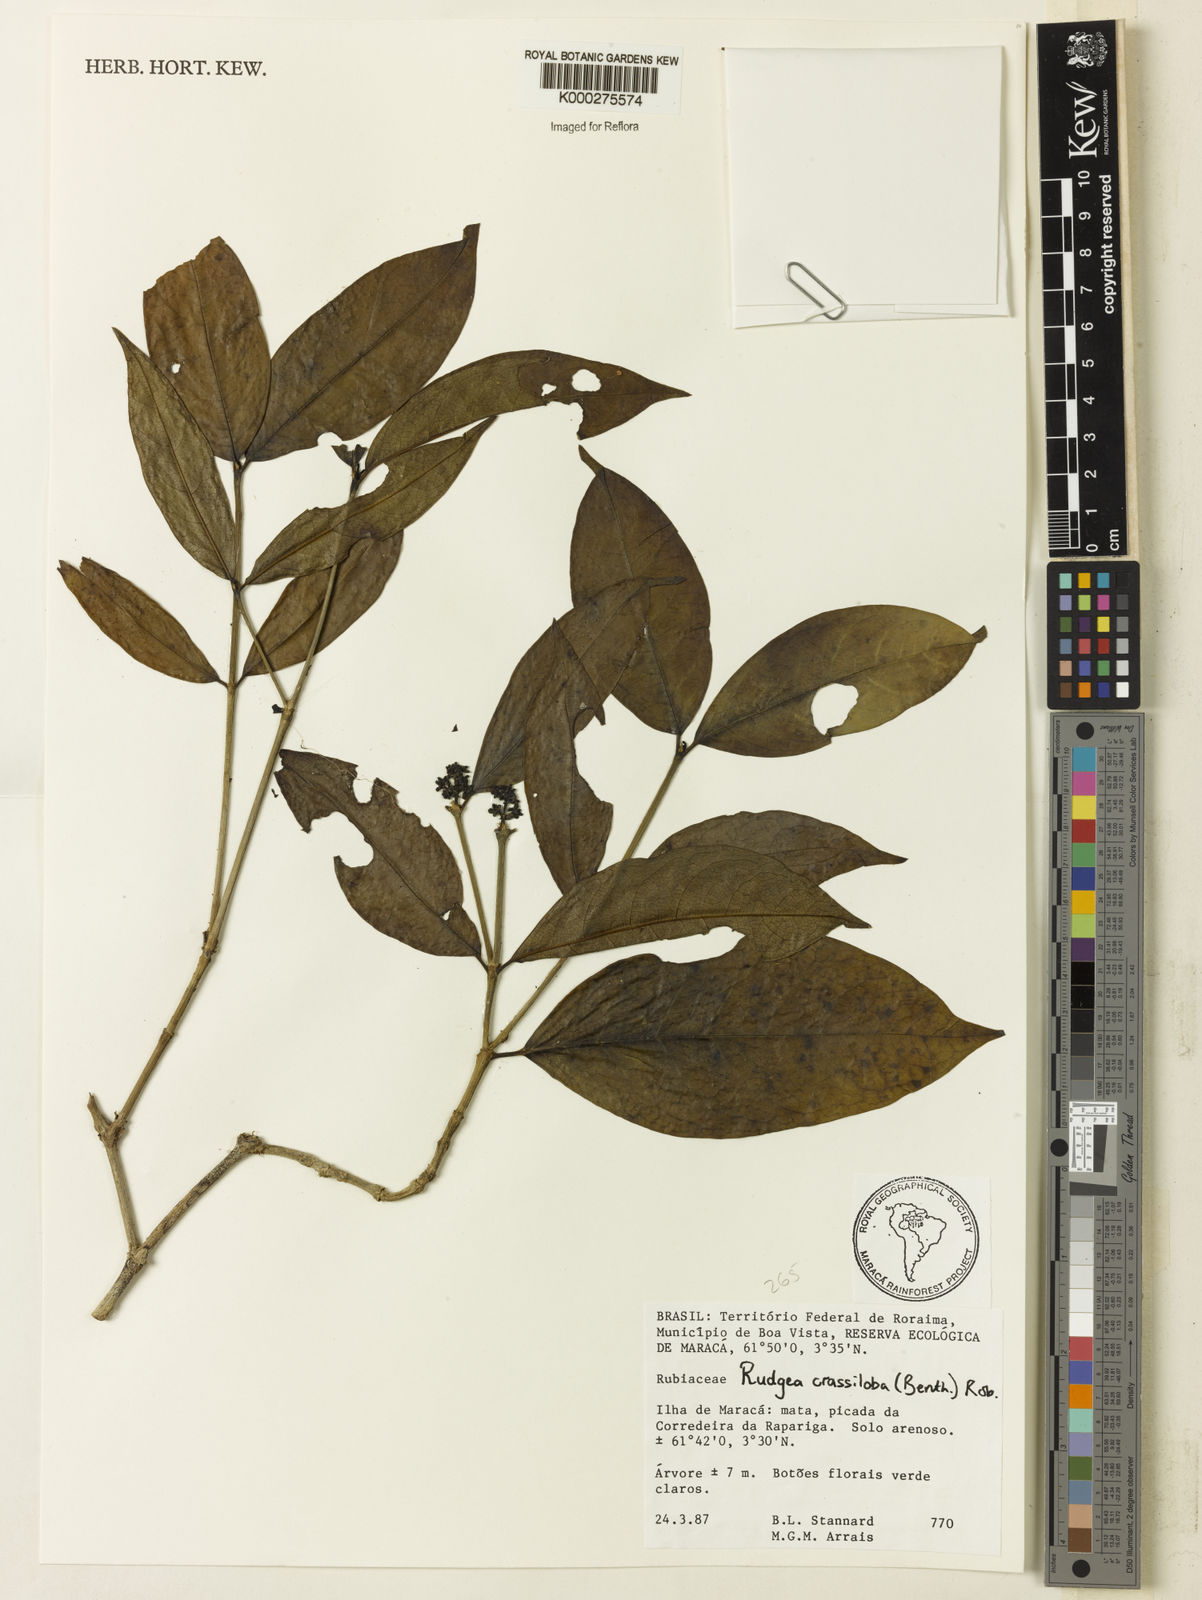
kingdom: Plantae
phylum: Tracheophyta
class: Magnoliopsida
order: Gentianales
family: Rubiaceae
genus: Rudgea
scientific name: Rudgea crassiloba
